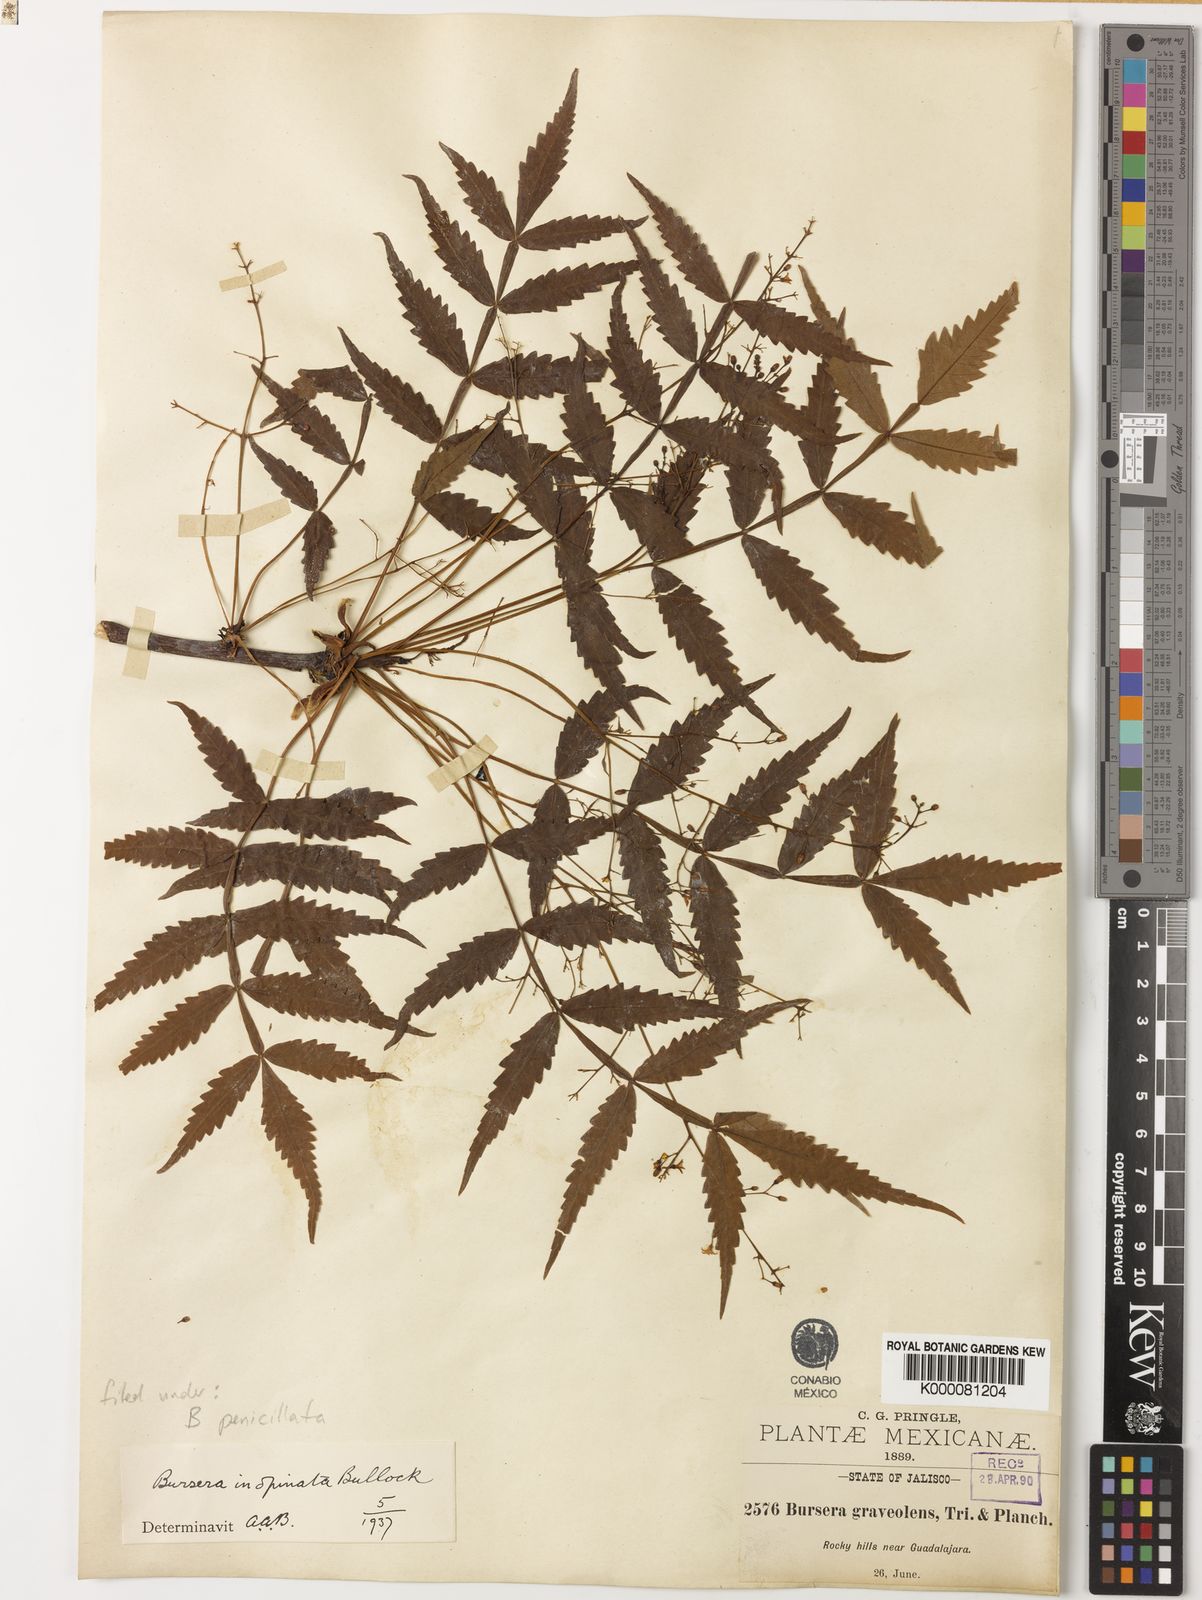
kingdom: Plantae
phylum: Tracheophyta
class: Magnoliopsida
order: Sapindales
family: Burseraceae
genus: Bursera
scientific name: Bursera penicillata
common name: Indian-lavender
